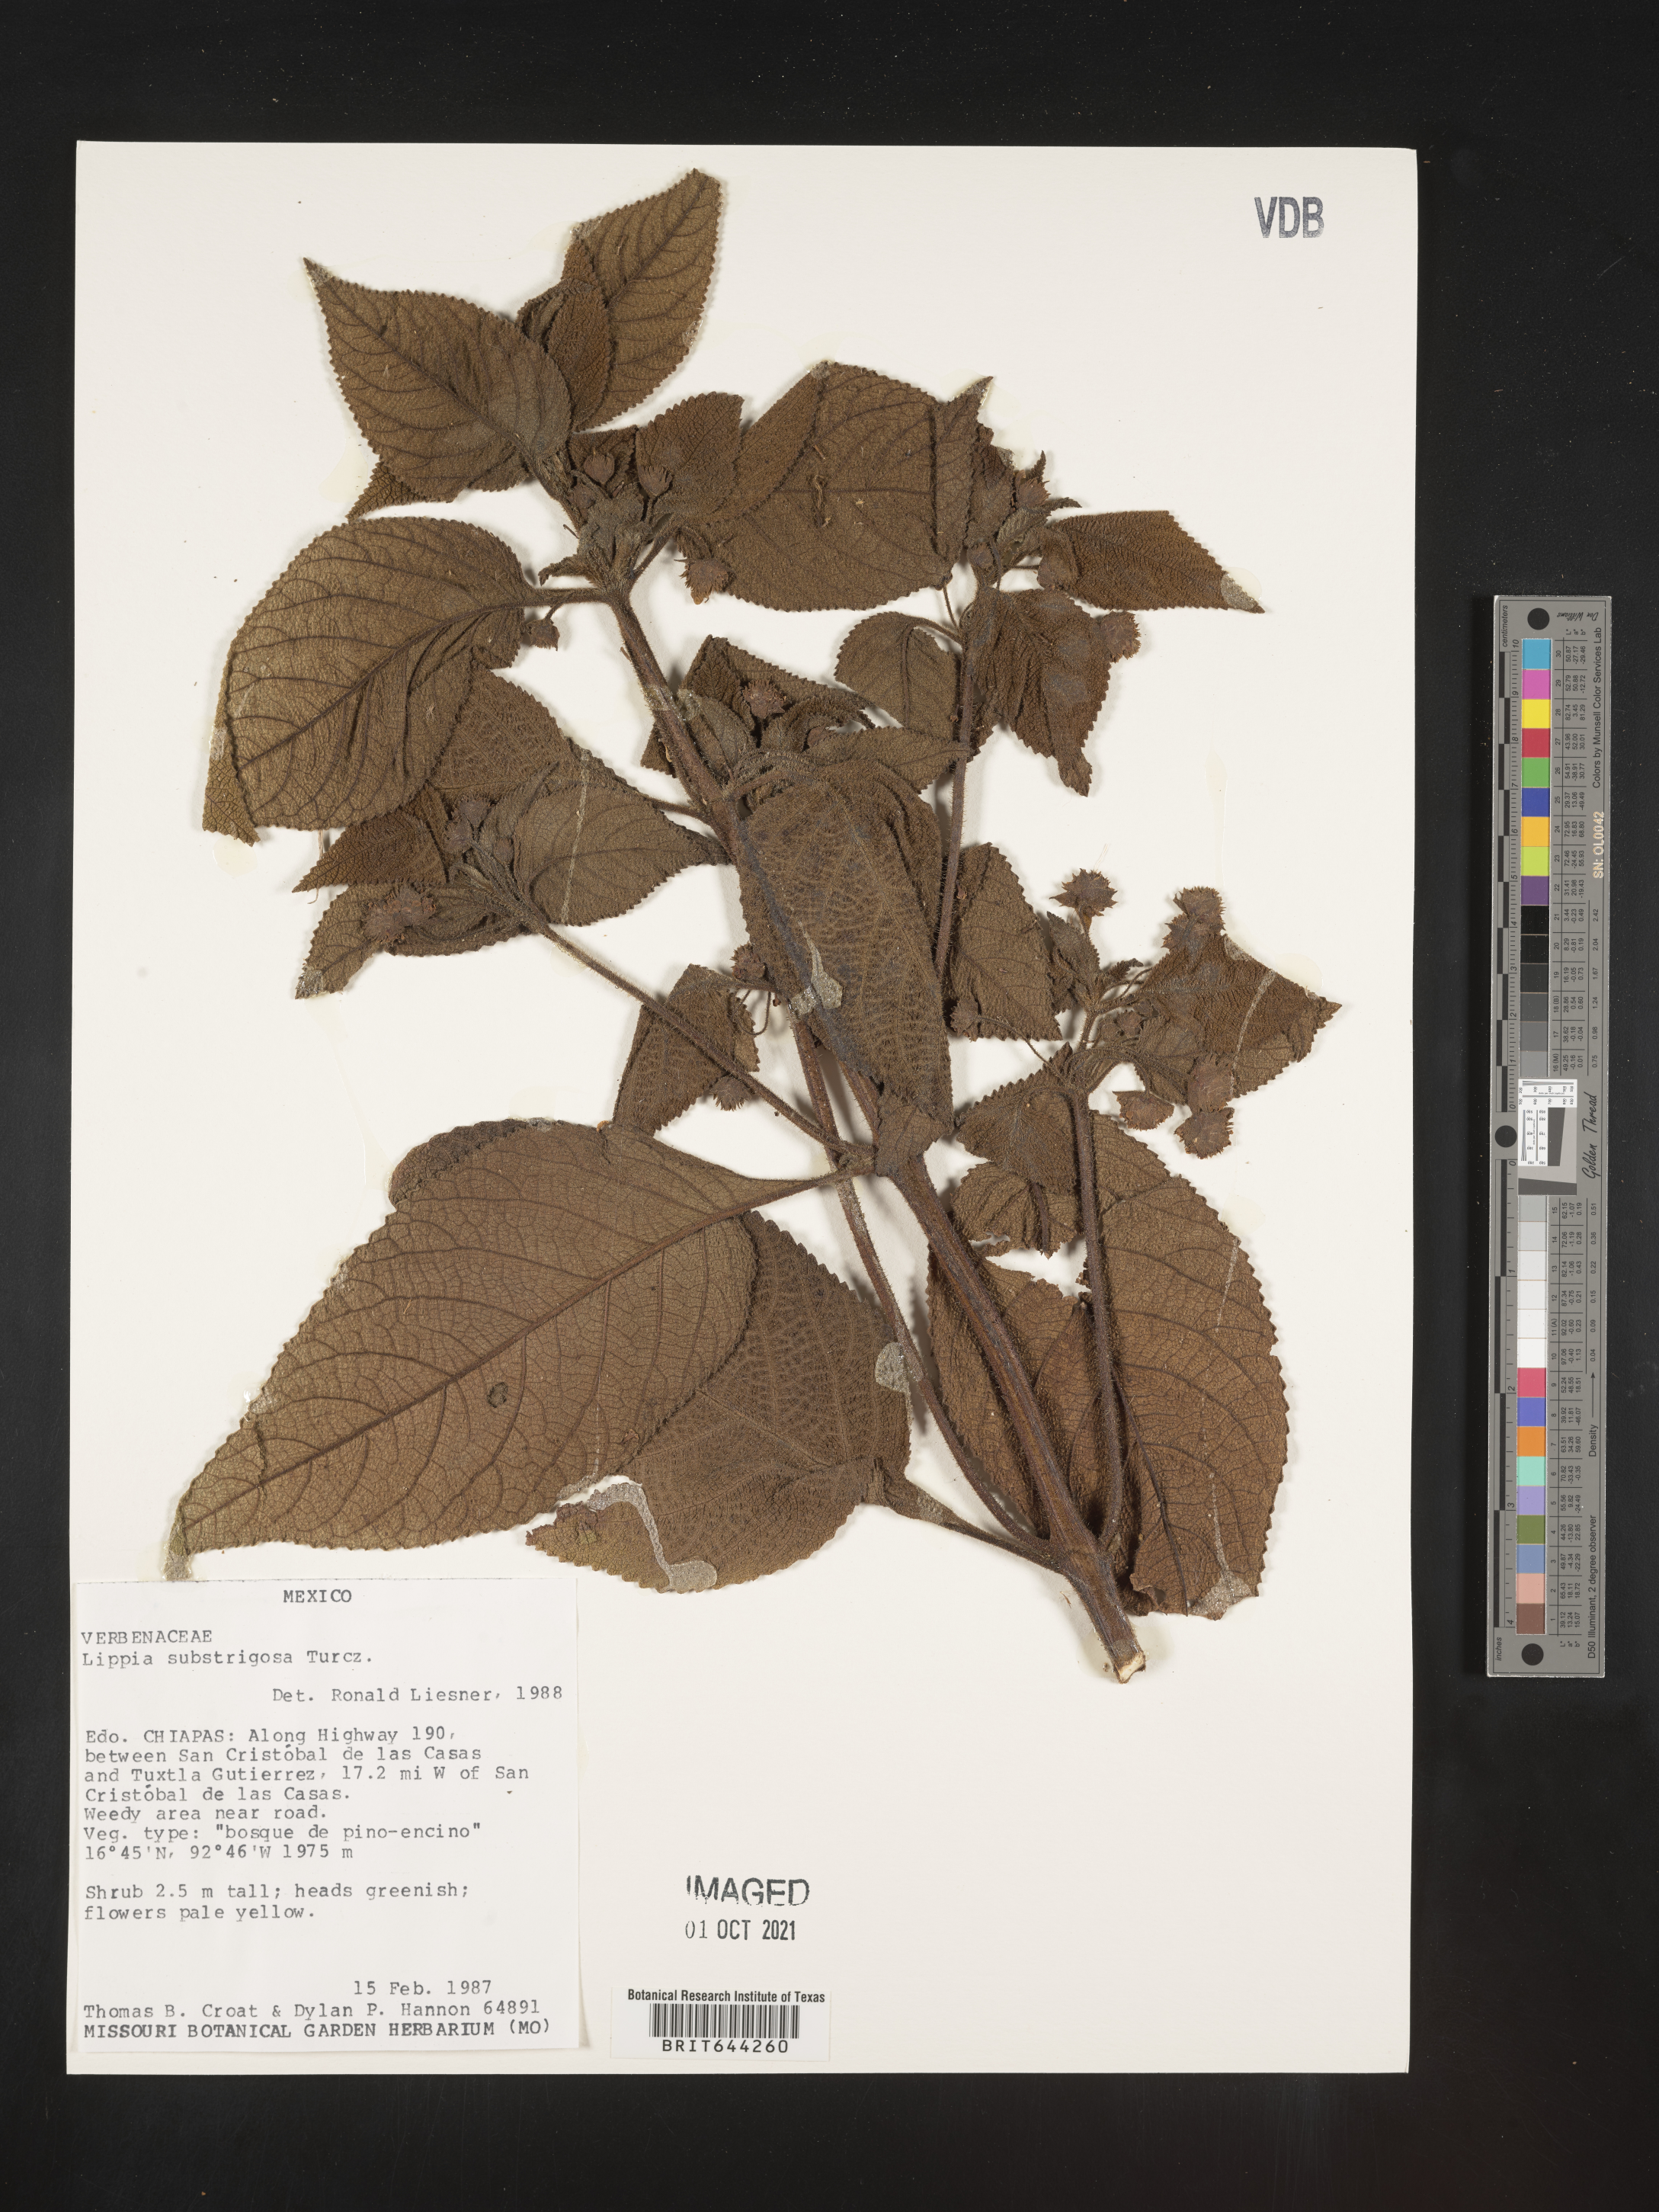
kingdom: Plantae
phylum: Tracheophyta
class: Magnoliopsida
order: Lamiales
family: Verbenaceae
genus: Lippia
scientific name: Lippia
